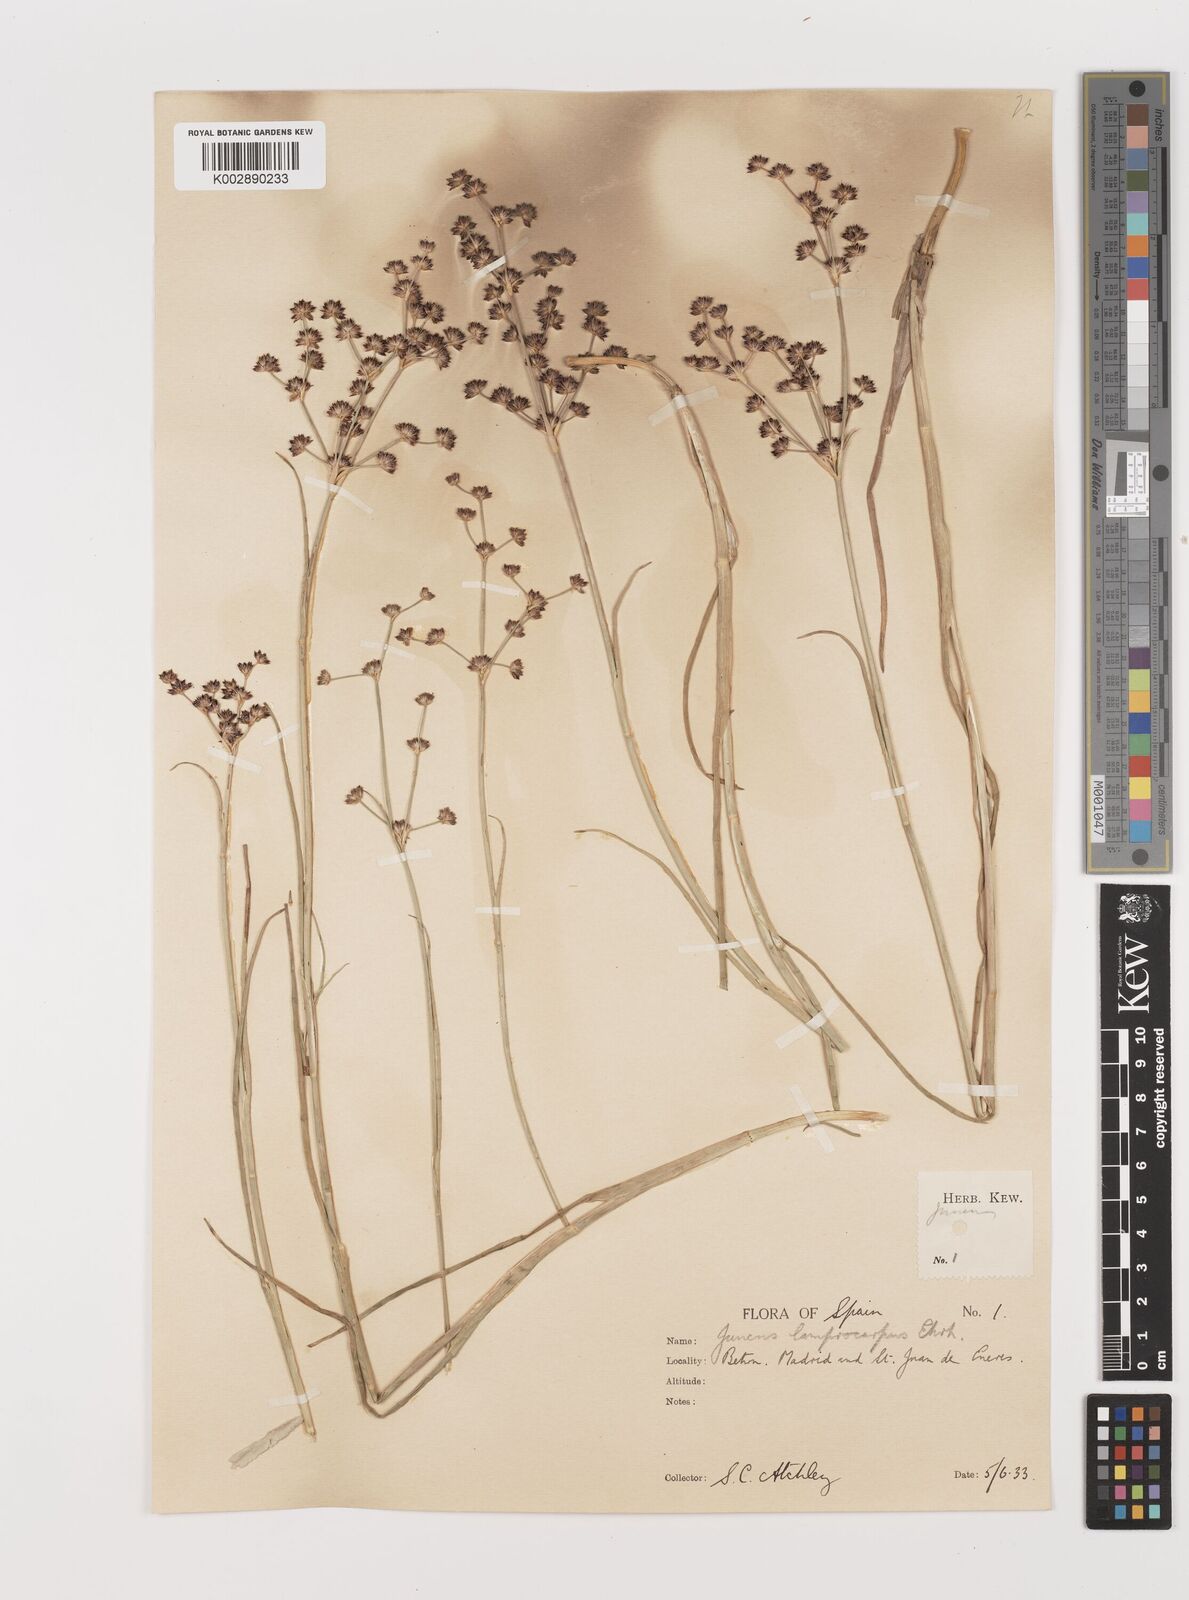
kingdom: Plantae
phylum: Tracheophyta
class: Liliopsida
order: Poales
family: Juncaceae
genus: Juncus
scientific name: Juncus articulatus
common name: Jointed rush
